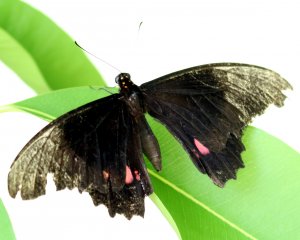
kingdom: Animalia
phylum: Arthropoda
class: Insecta
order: Lepidoptera
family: Papilionidae
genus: Papilio
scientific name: Papilio anchisiades
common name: Ruby-spotted Swallowtail
